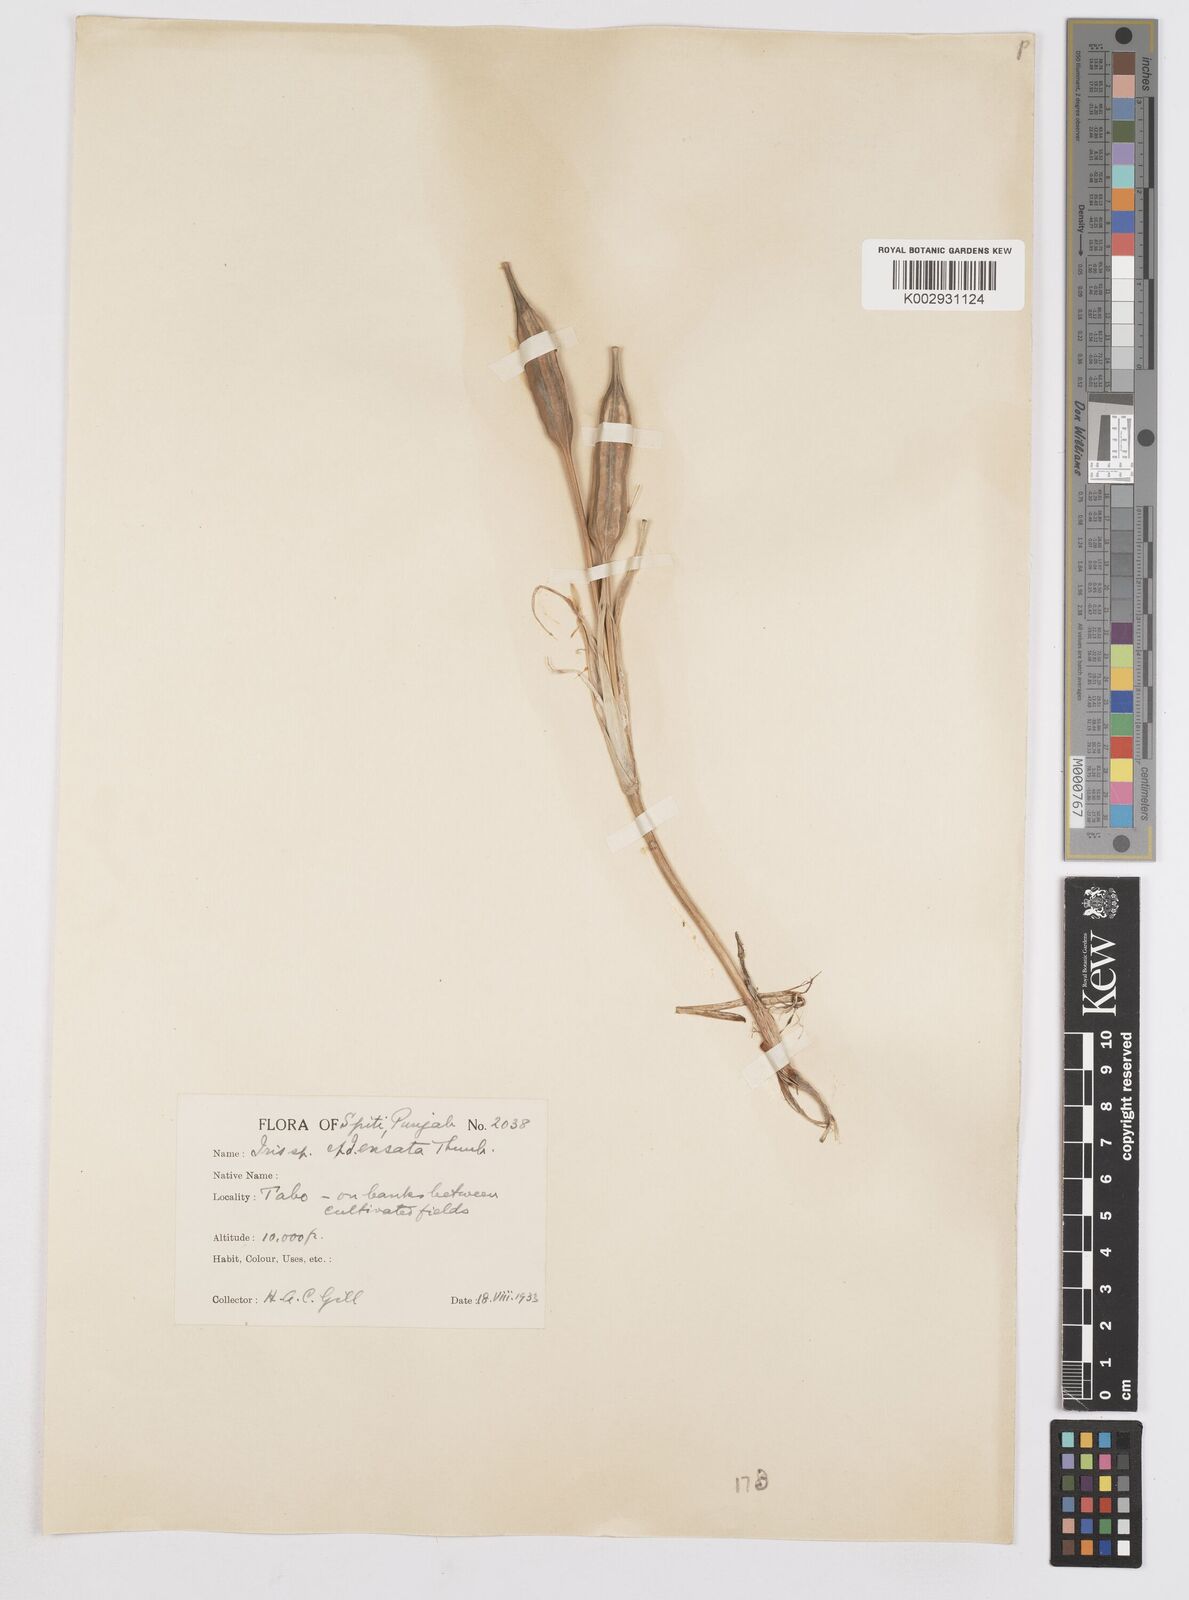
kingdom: Plantae
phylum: Tracheophyta
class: Liliopsida
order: Asparagales
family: Iridaceae
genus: Iris
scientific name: Iris ensata
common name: Beaked iris
